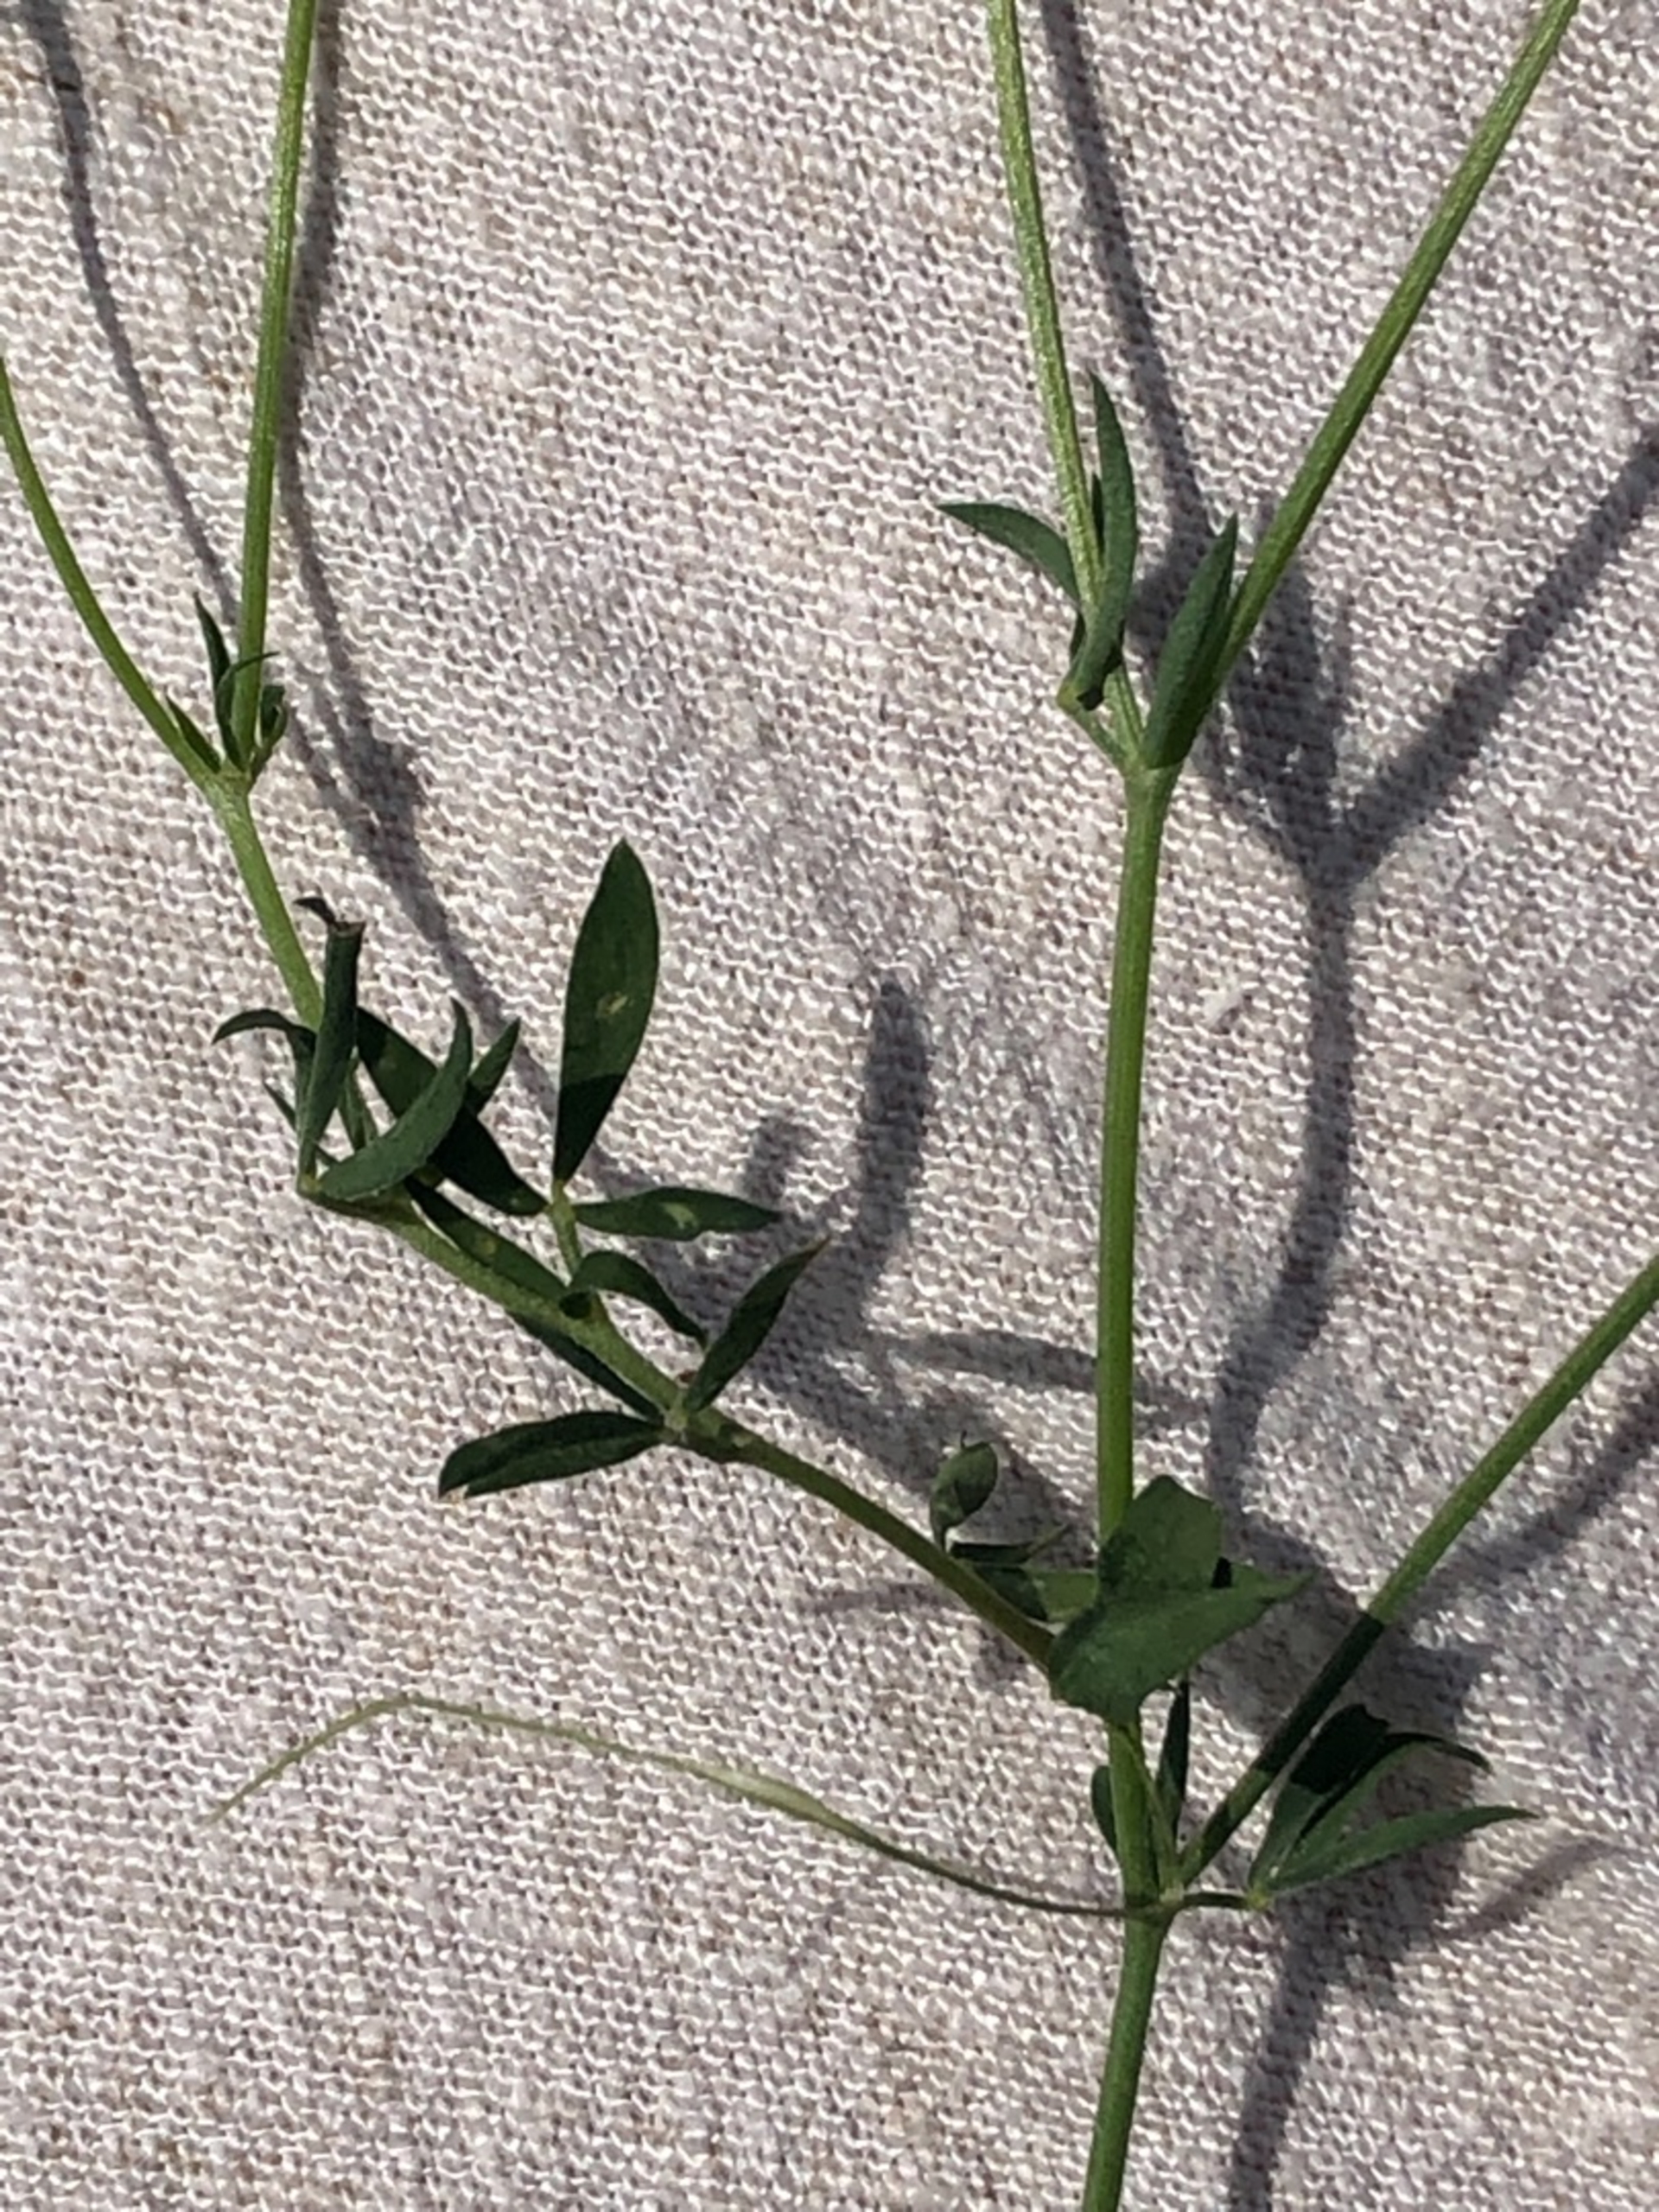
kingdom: Plantae
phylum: Tracheophyta
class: Magnoliopsida
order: Fabales
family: Fabaceae
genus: Lotus
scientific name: Lotus tenuis
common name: Smalbladet kællingetand
